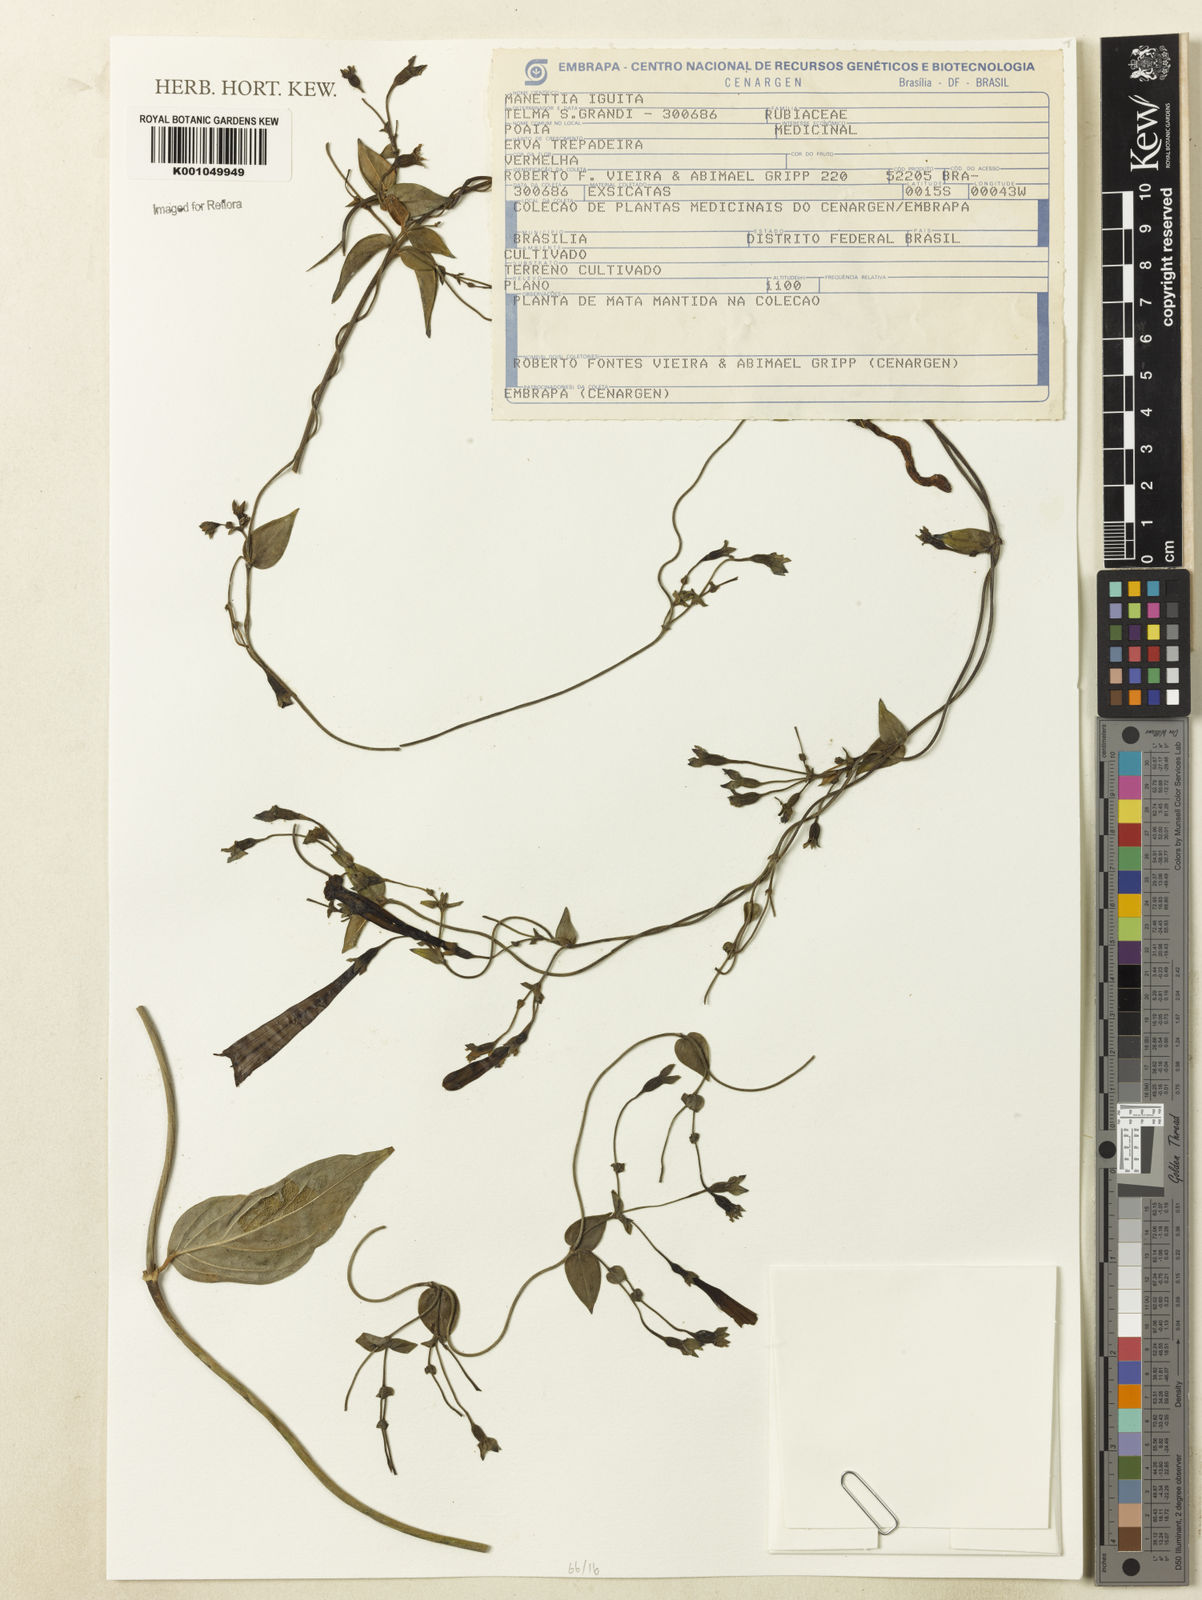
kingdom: Plantae
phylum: Tracheophyta
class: Magnoliopsida
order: Gentianales
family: Rubiaceae
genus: Manettia
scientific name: Manettia cordifolia
